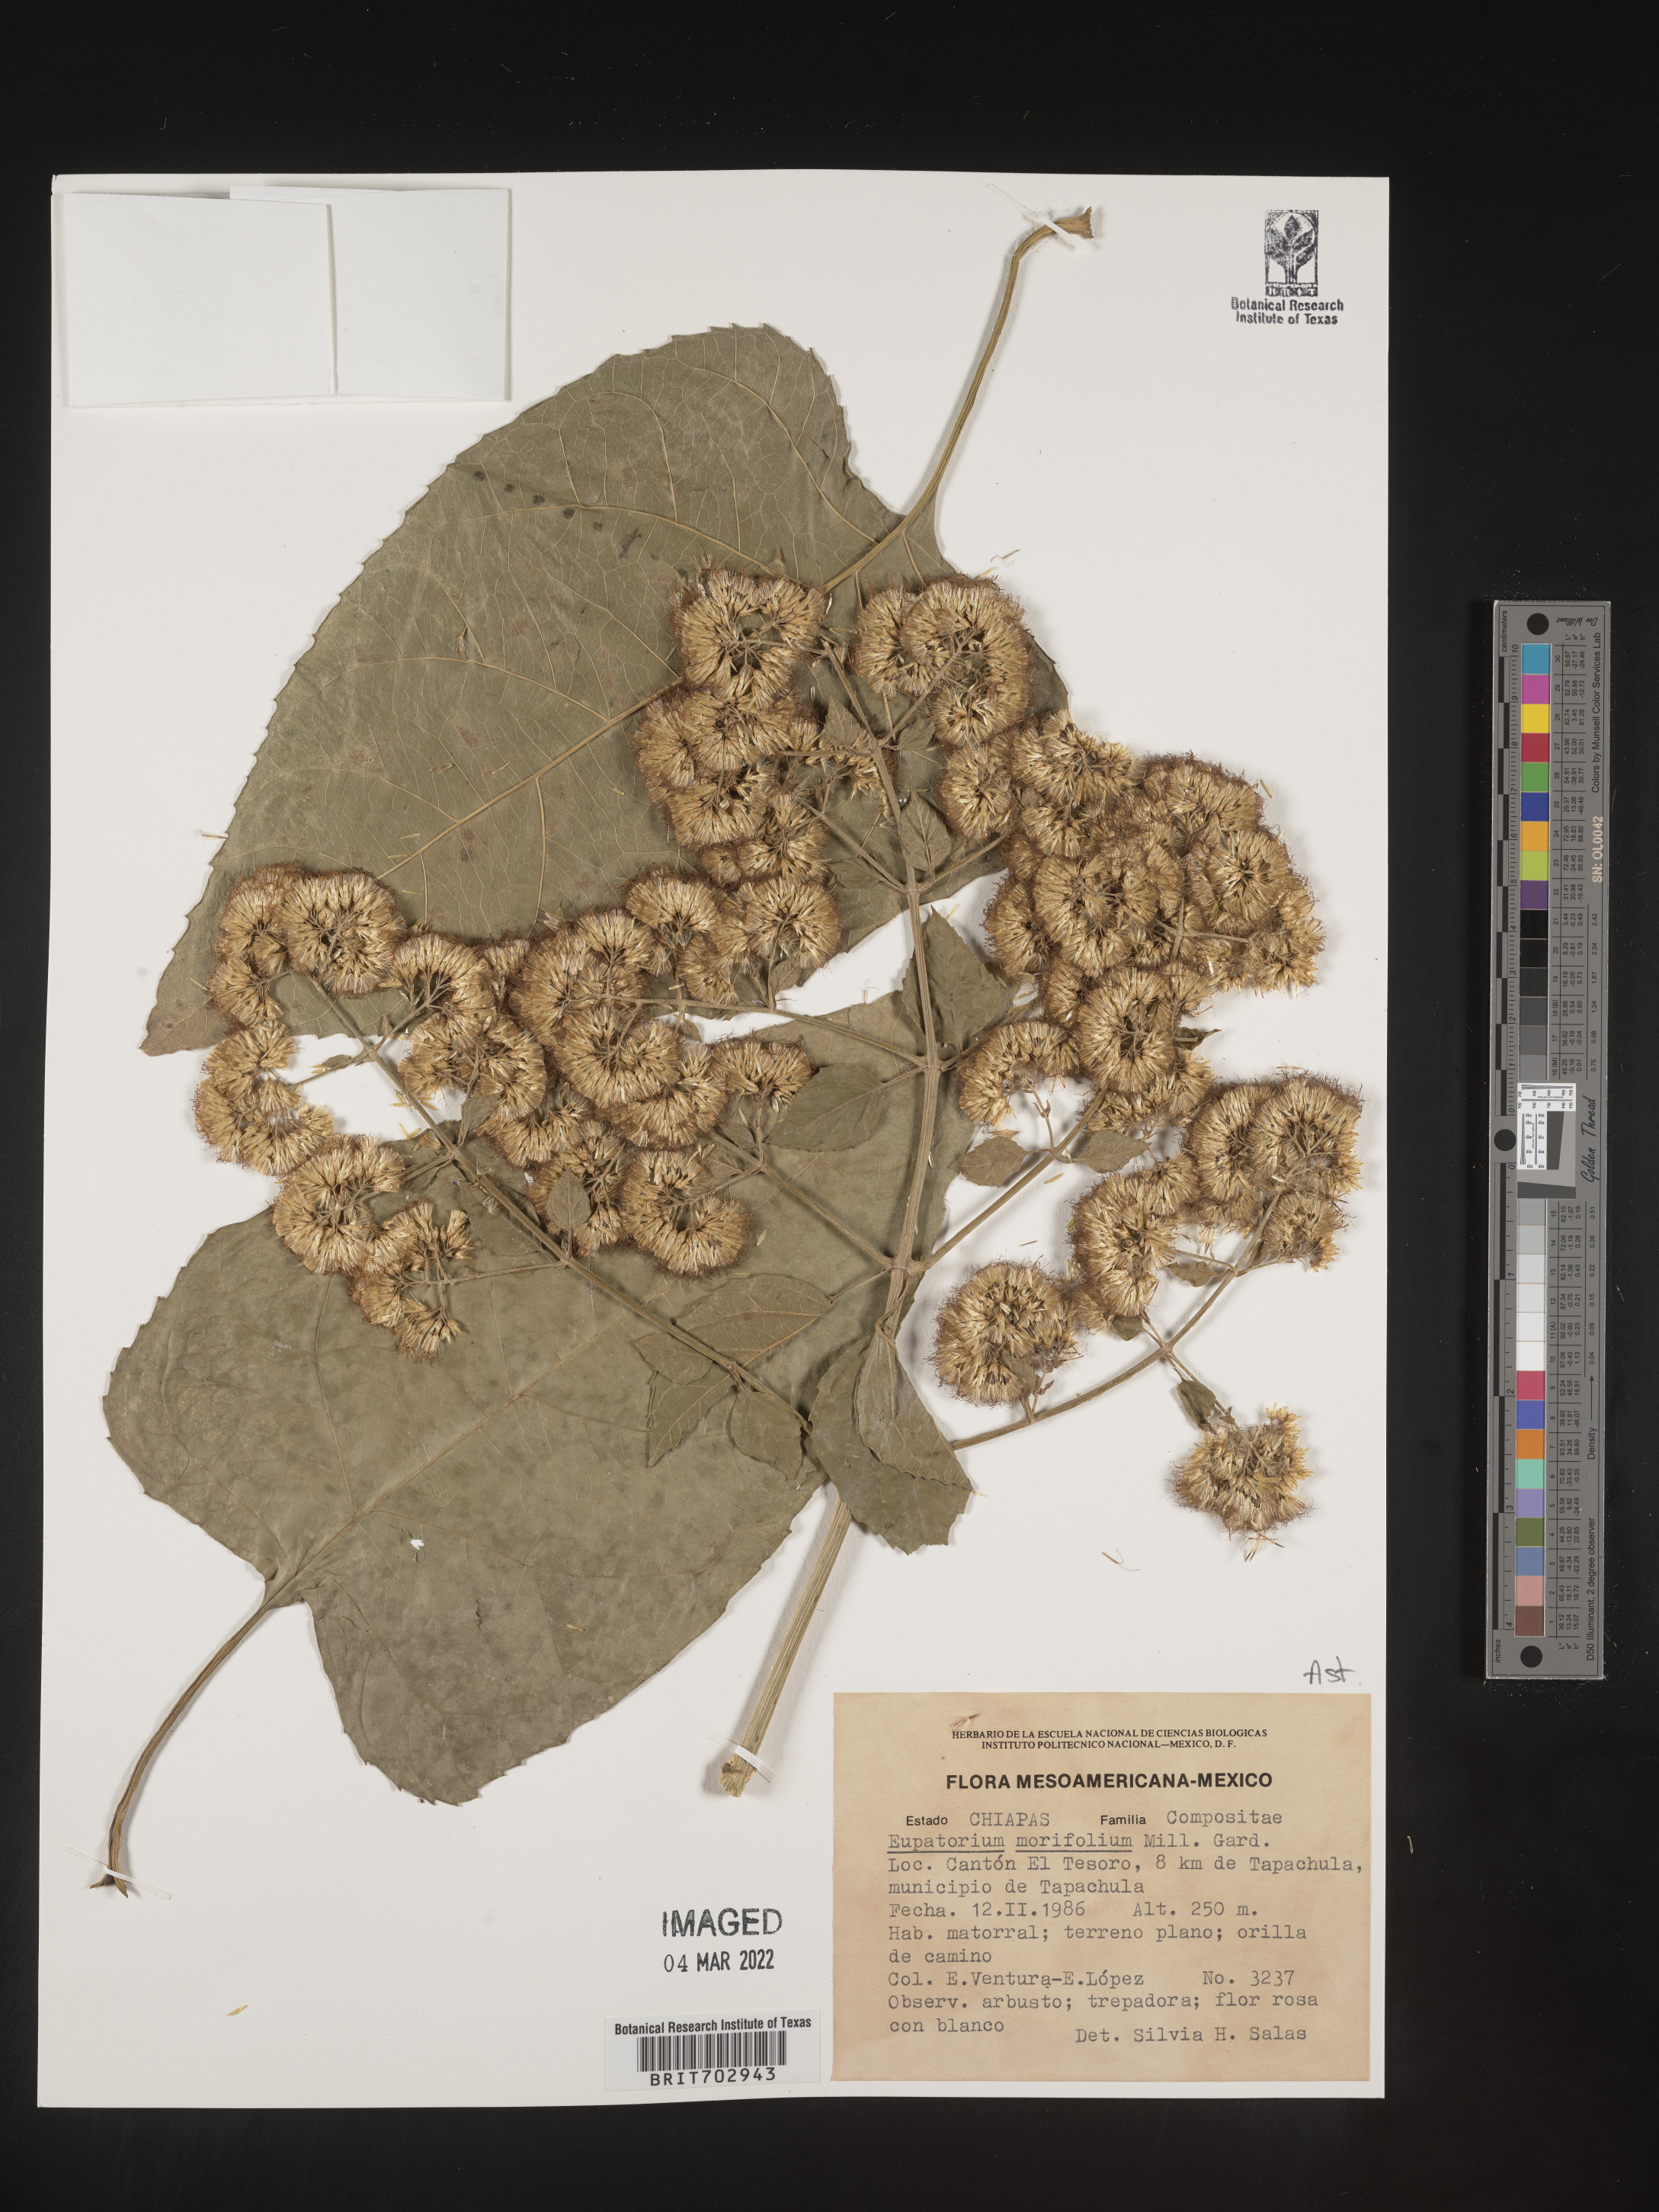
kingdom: Plantae
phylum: Tracheophyta
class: Magnoliopsida
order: Asterales
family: Asteraceae
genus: Eupatorium
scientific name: Eupatorium
